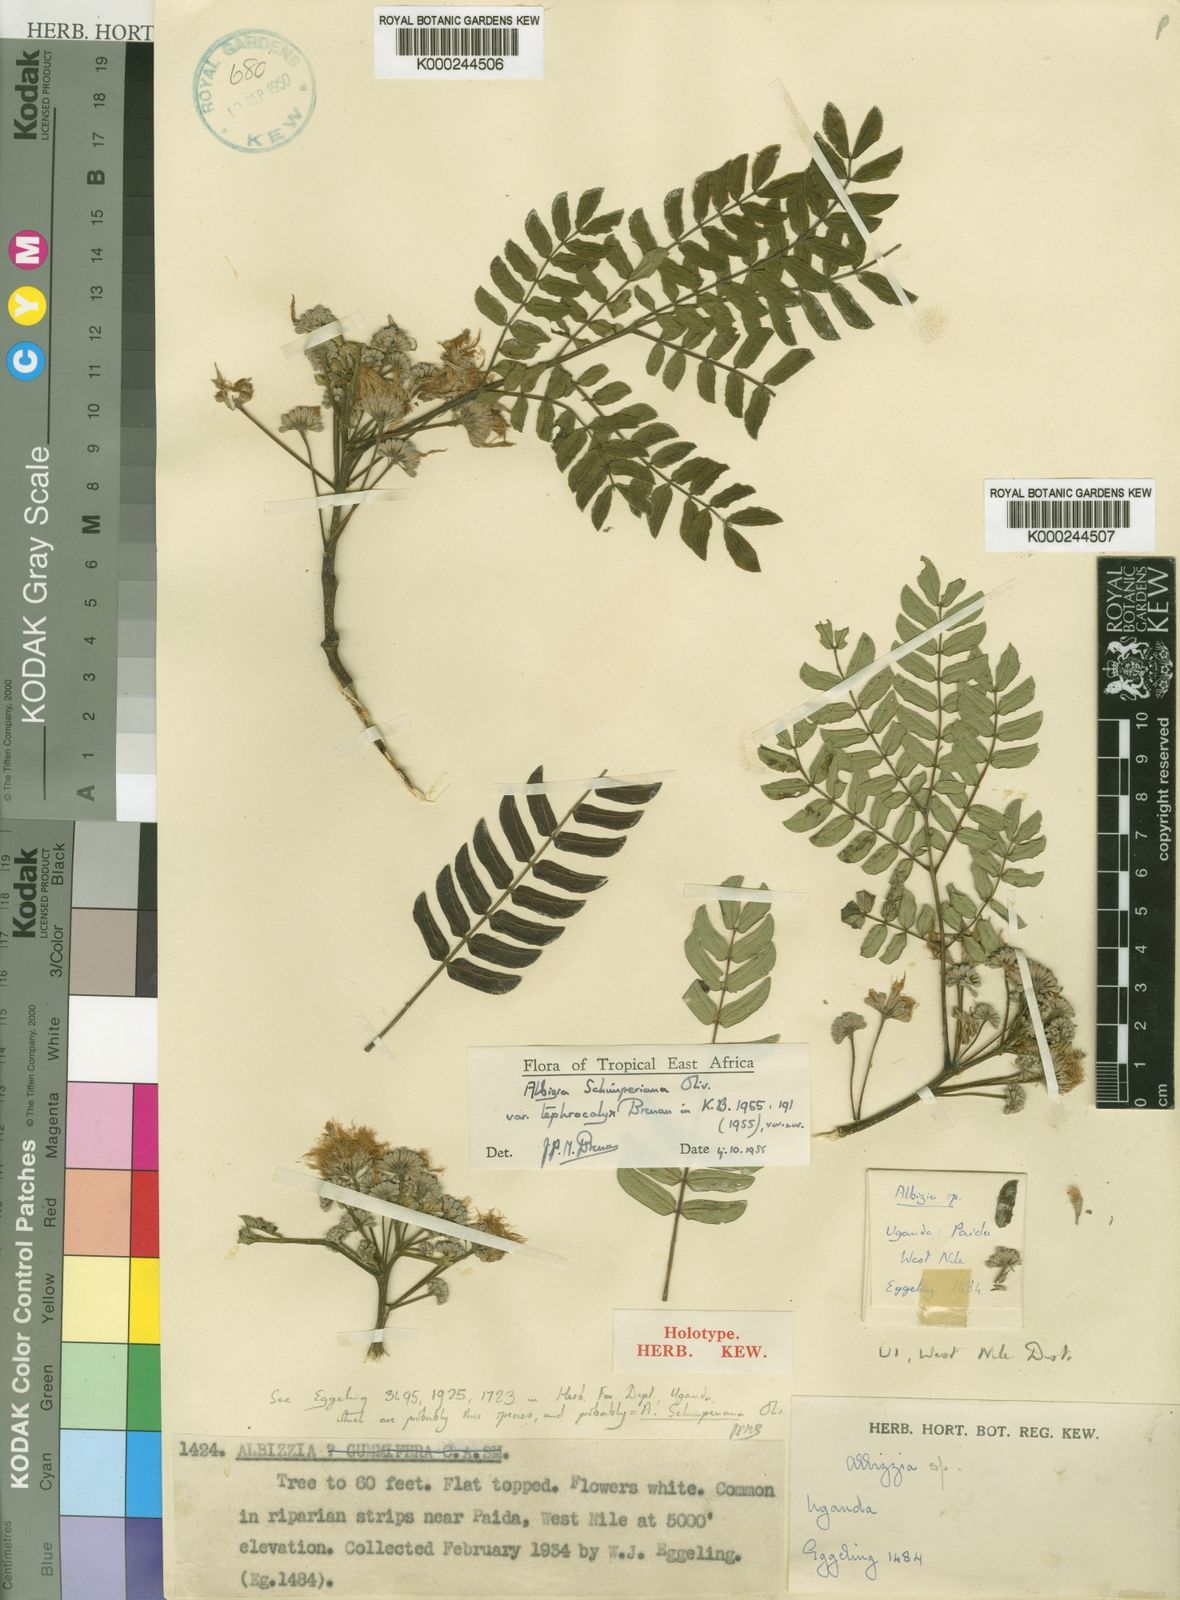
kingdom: Plantae
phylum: Tracheophyta
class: Magnoliopsida
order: Fabales
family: Fabaceae
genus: Albizia
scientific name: Albizia schimperiana
